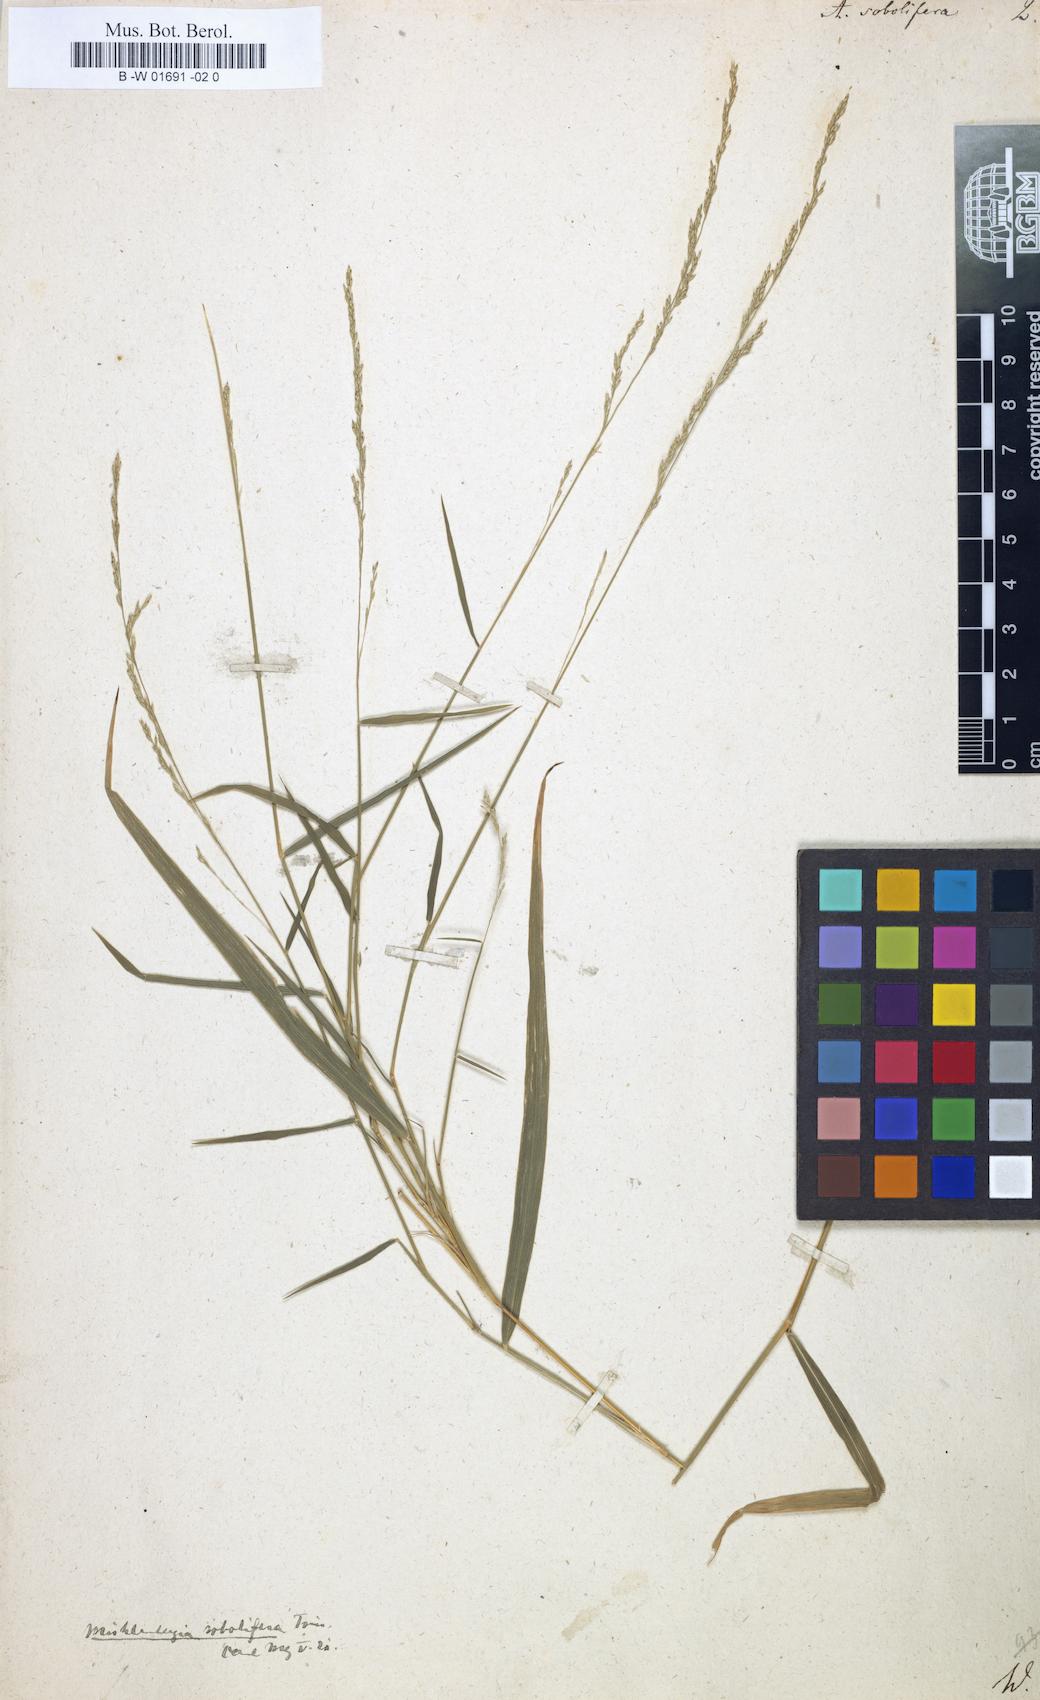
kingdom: Plantae
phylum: Tracheophyta
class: Liliopsida
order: Poales
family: Poaceae
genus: Muhlenbergia
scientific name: Muhlenbergia sobolifera
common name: Creeping muhly
